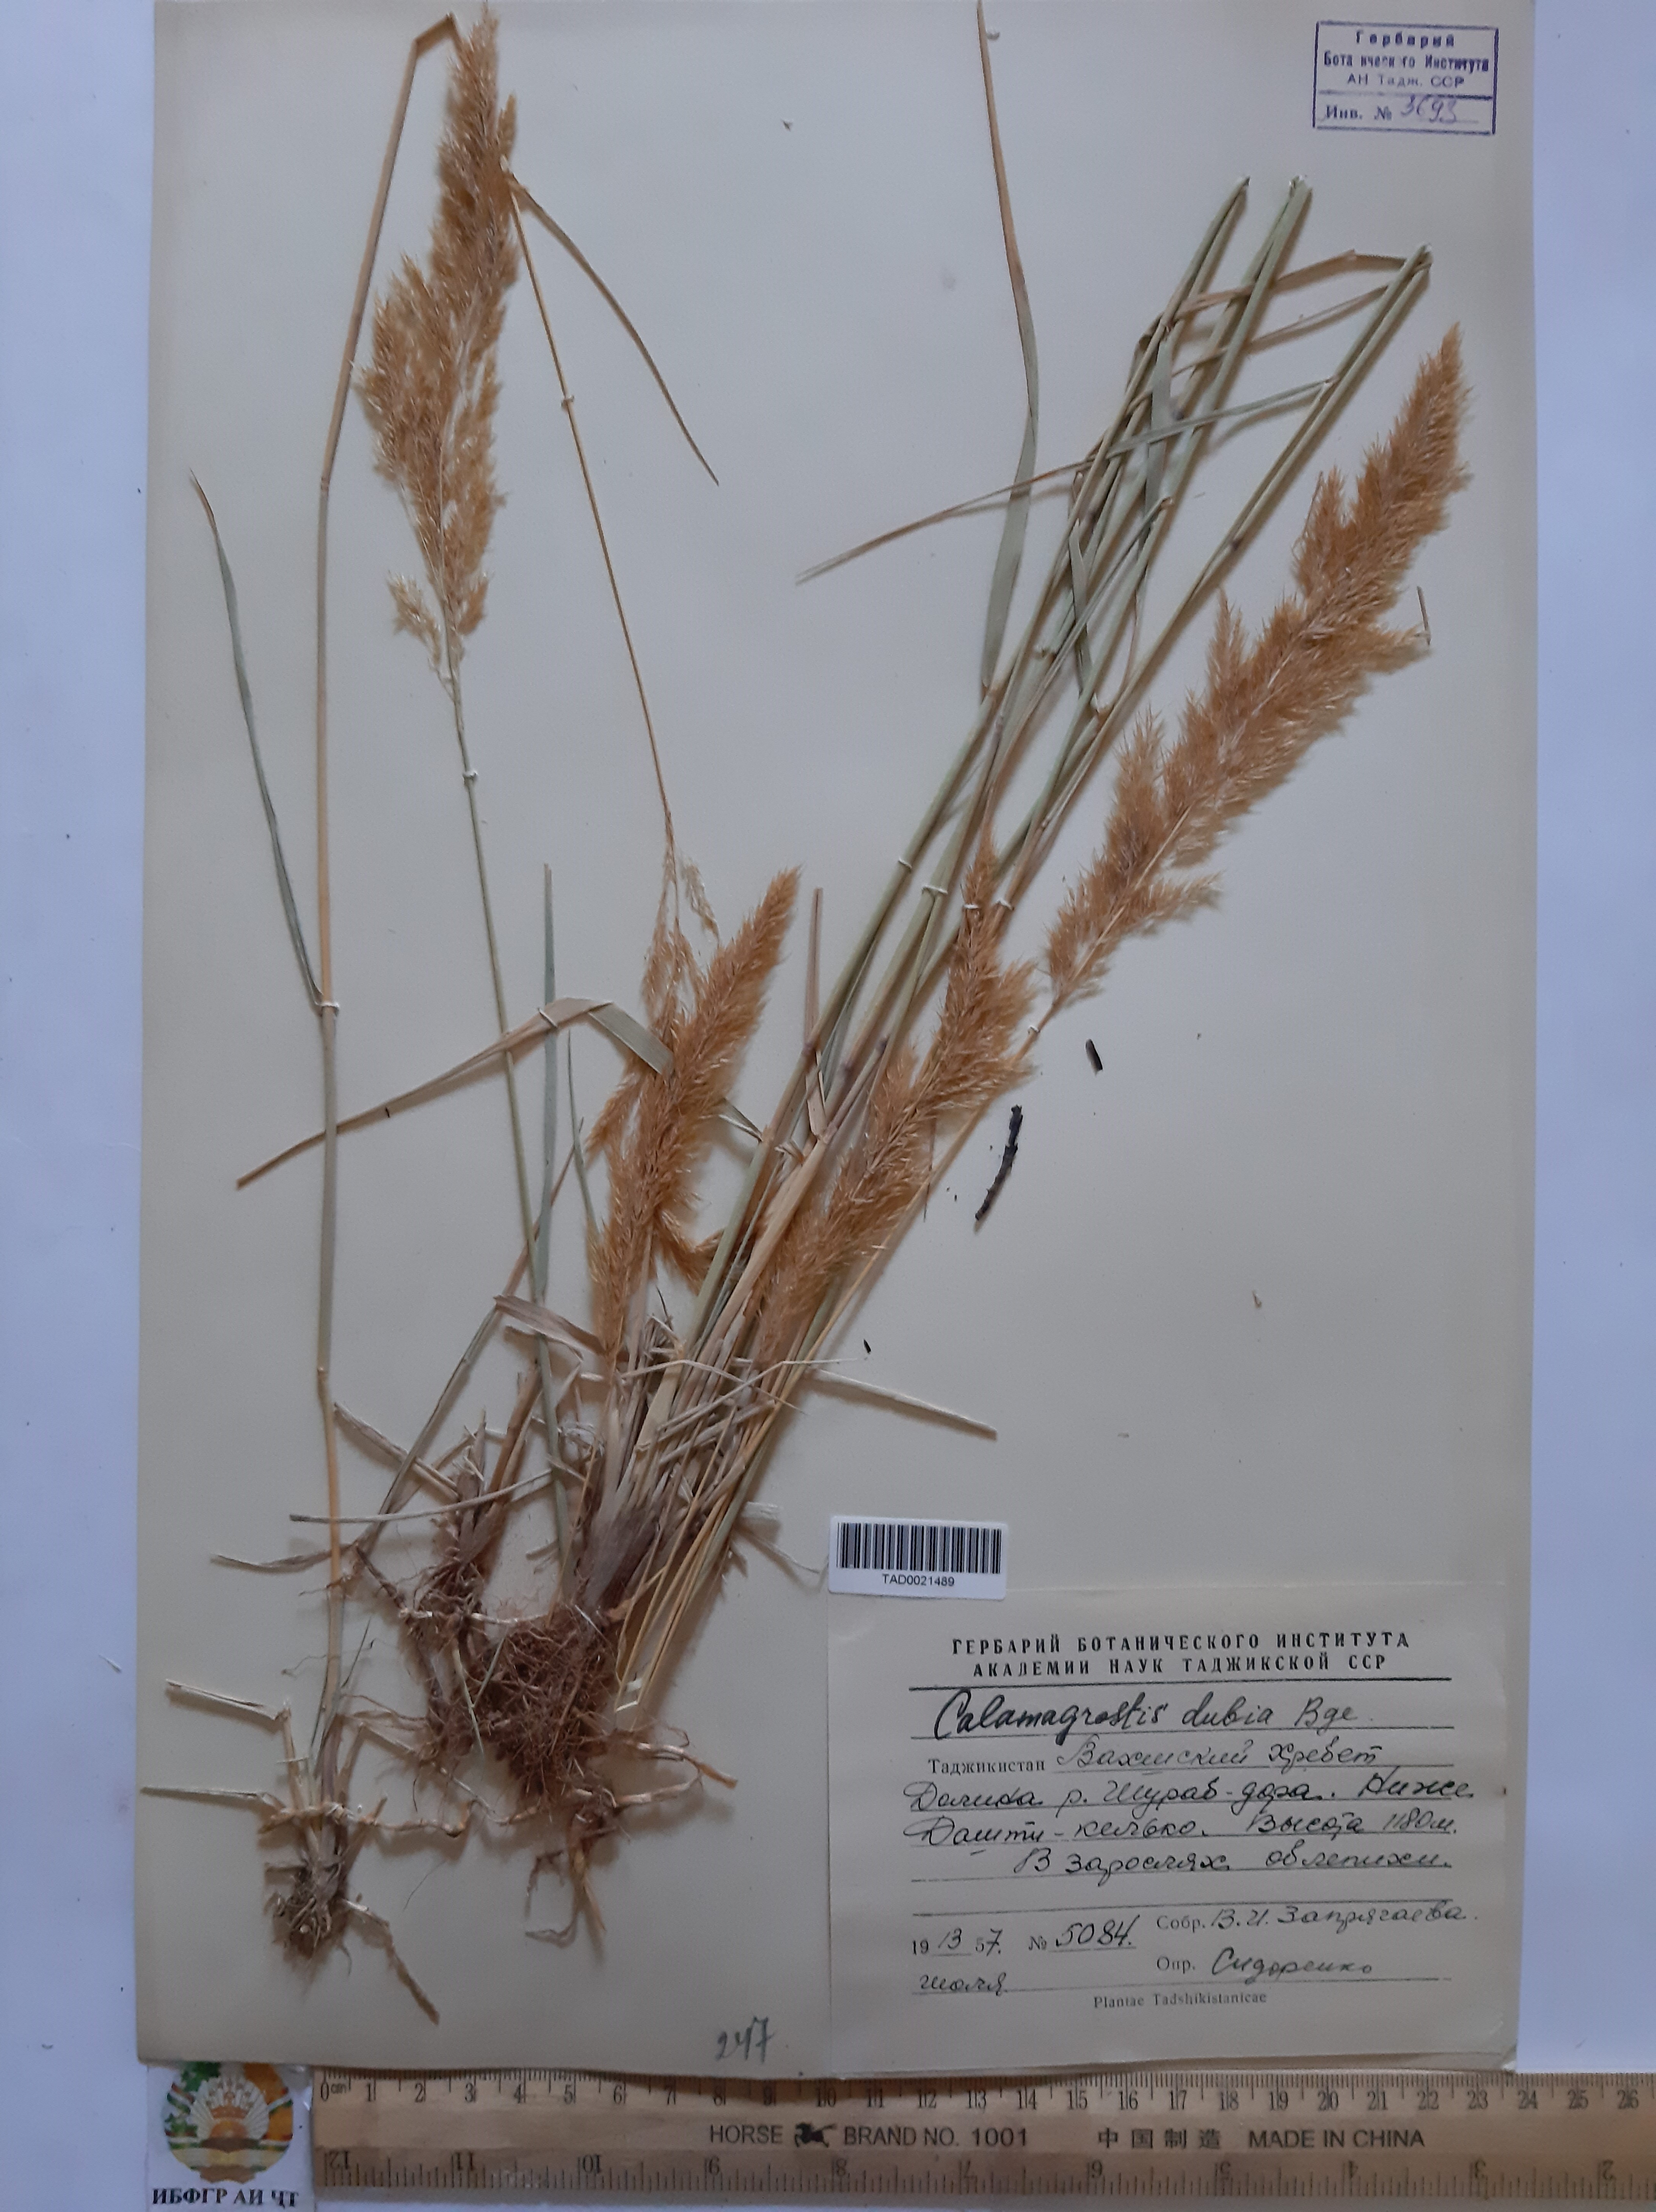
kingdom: Plantae
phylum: Tracheophyta
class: Liliopsida
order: Poales
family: Poaceae
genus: Calamagrostis
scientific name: Calamagrostis pseudophragmites
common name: Coastal small-reed
